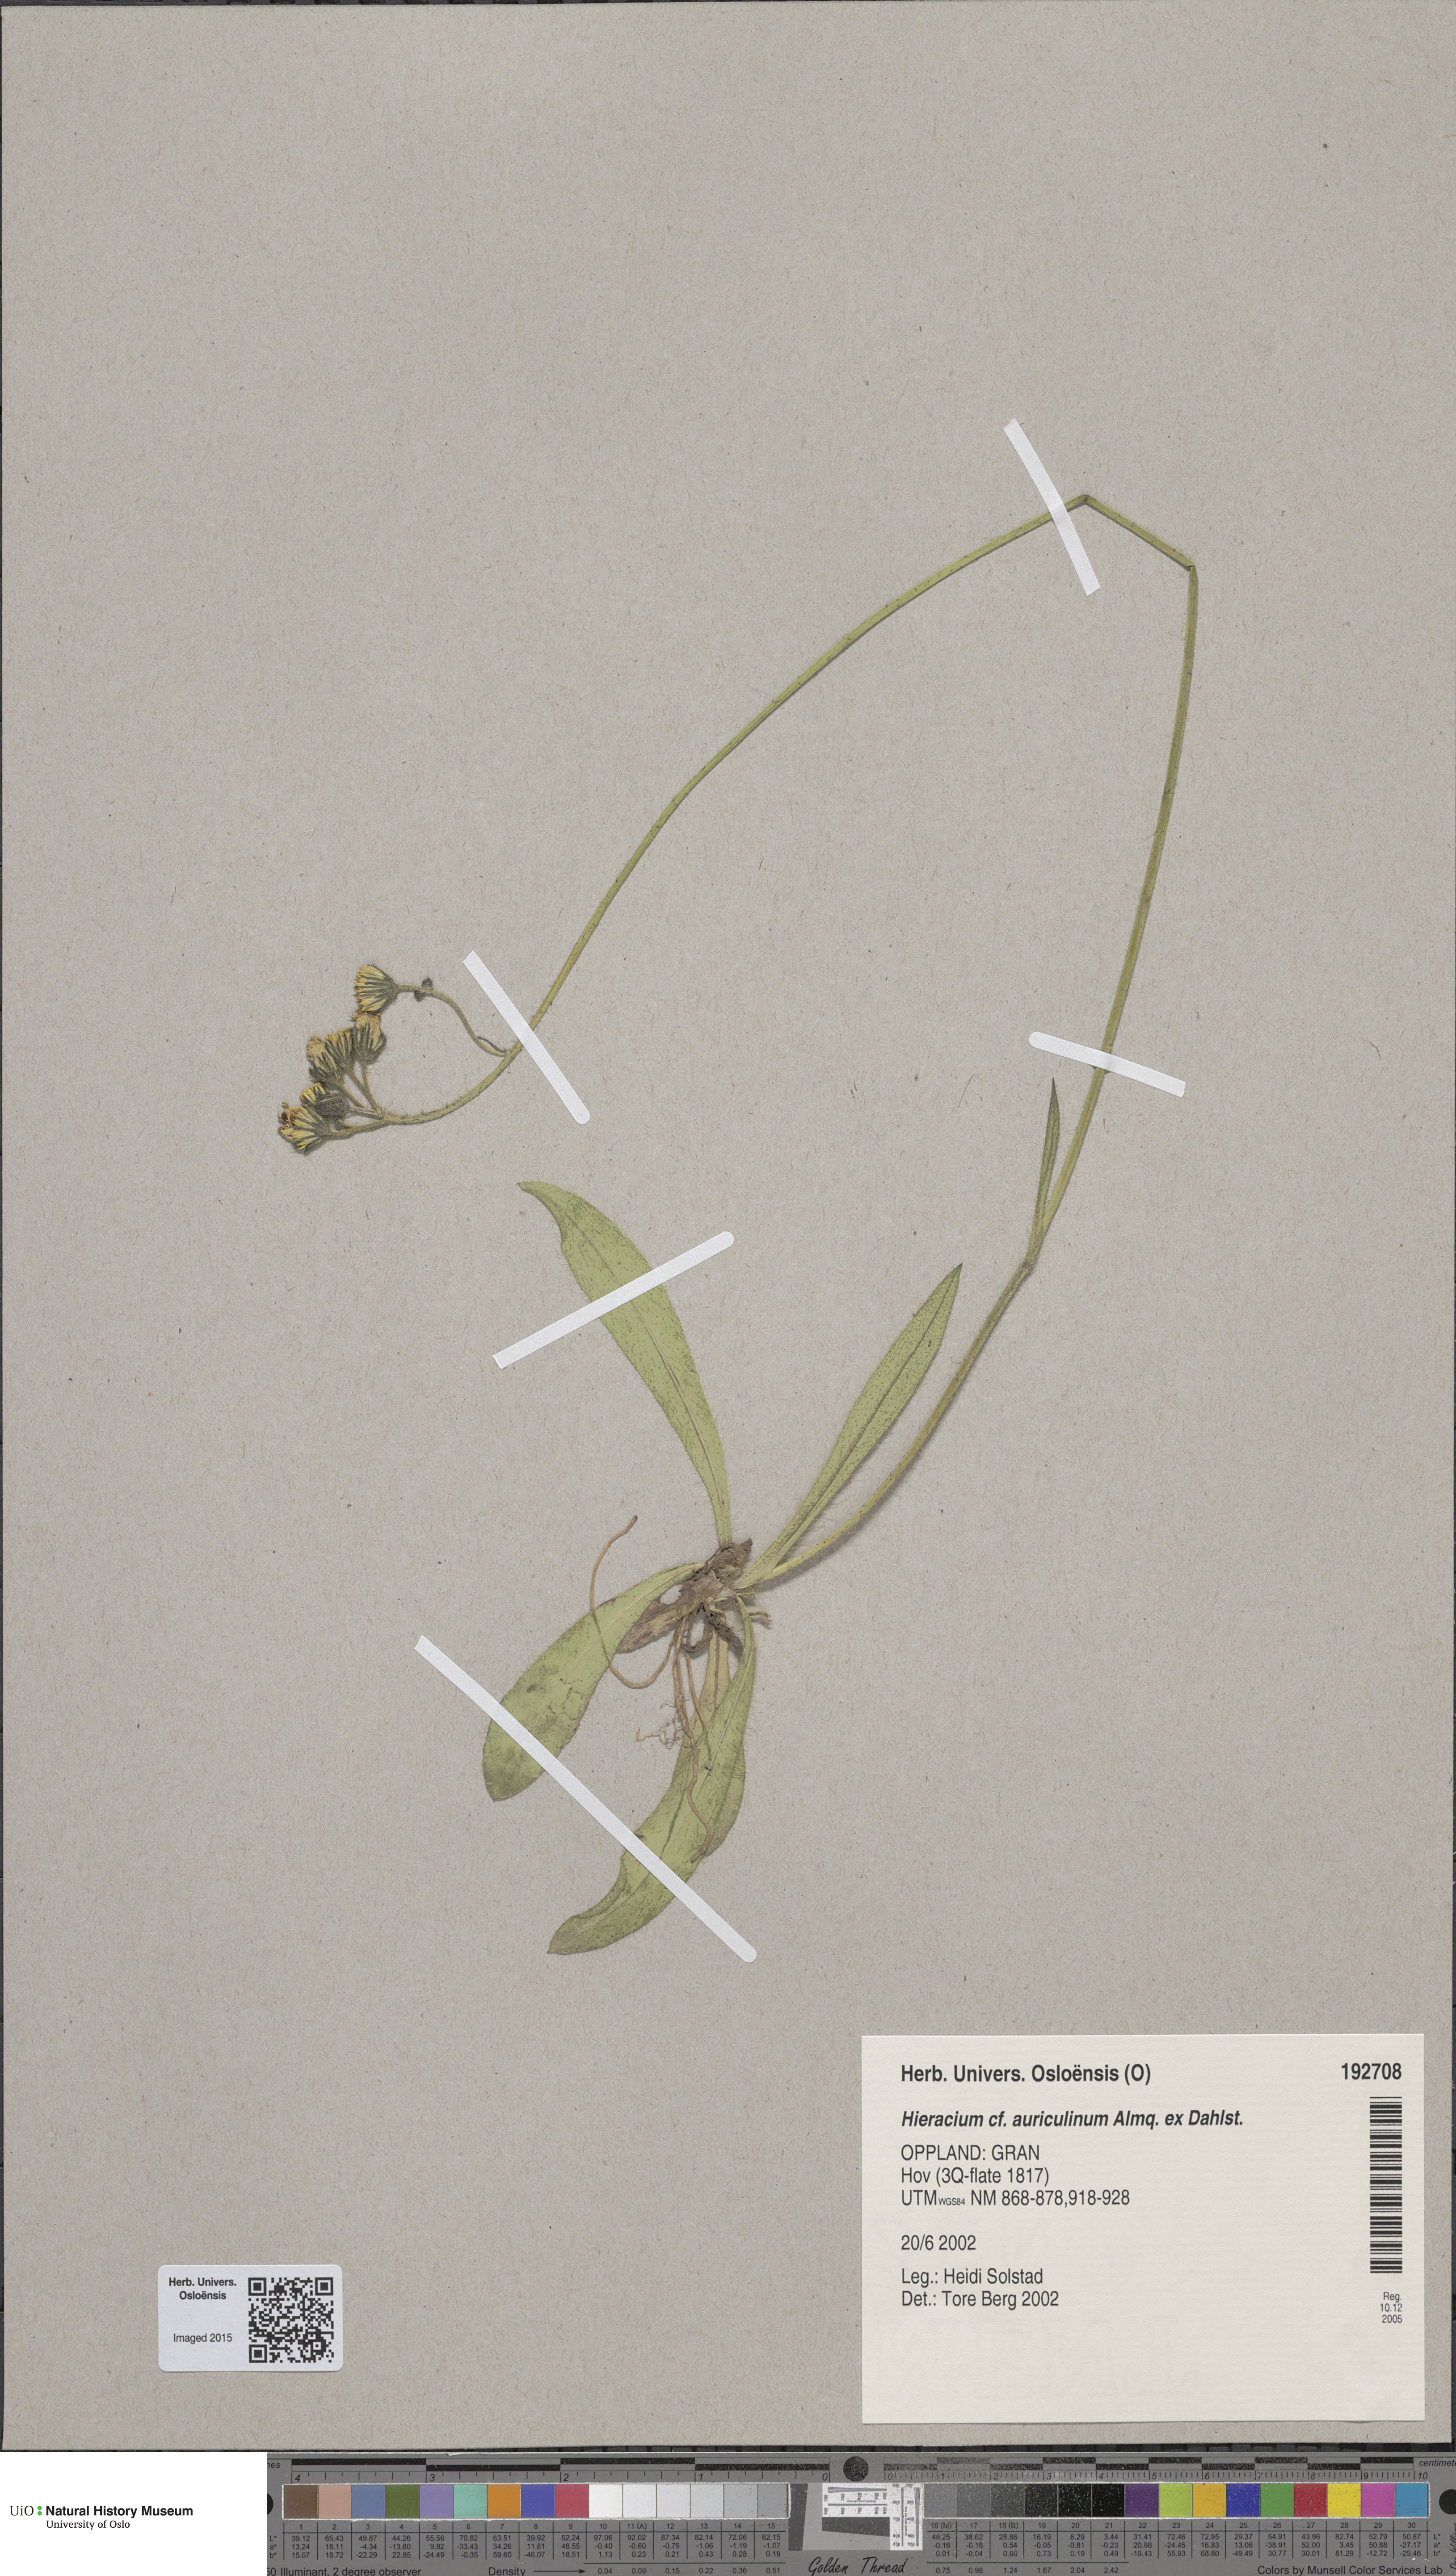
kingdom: Plantae
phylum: Tracheophyta
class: Magnoliopsida
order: Asterales
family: Asteraceae
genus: Pilosella
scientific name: Pilosella dubia
